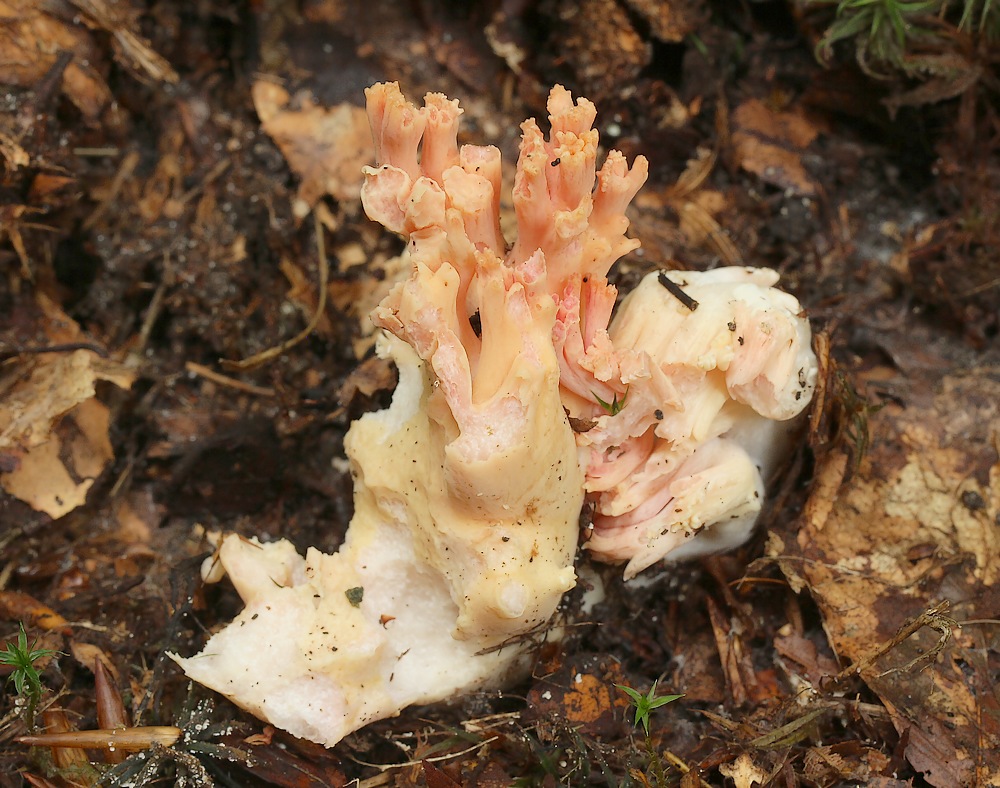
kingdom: Fungi
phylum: Basidiomycota
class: Agaricomycetes
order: Gomphales
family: Gomphaceae
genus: Ramaria
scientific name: Ramaria fagetorum
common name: abrikos-koralsvamp
